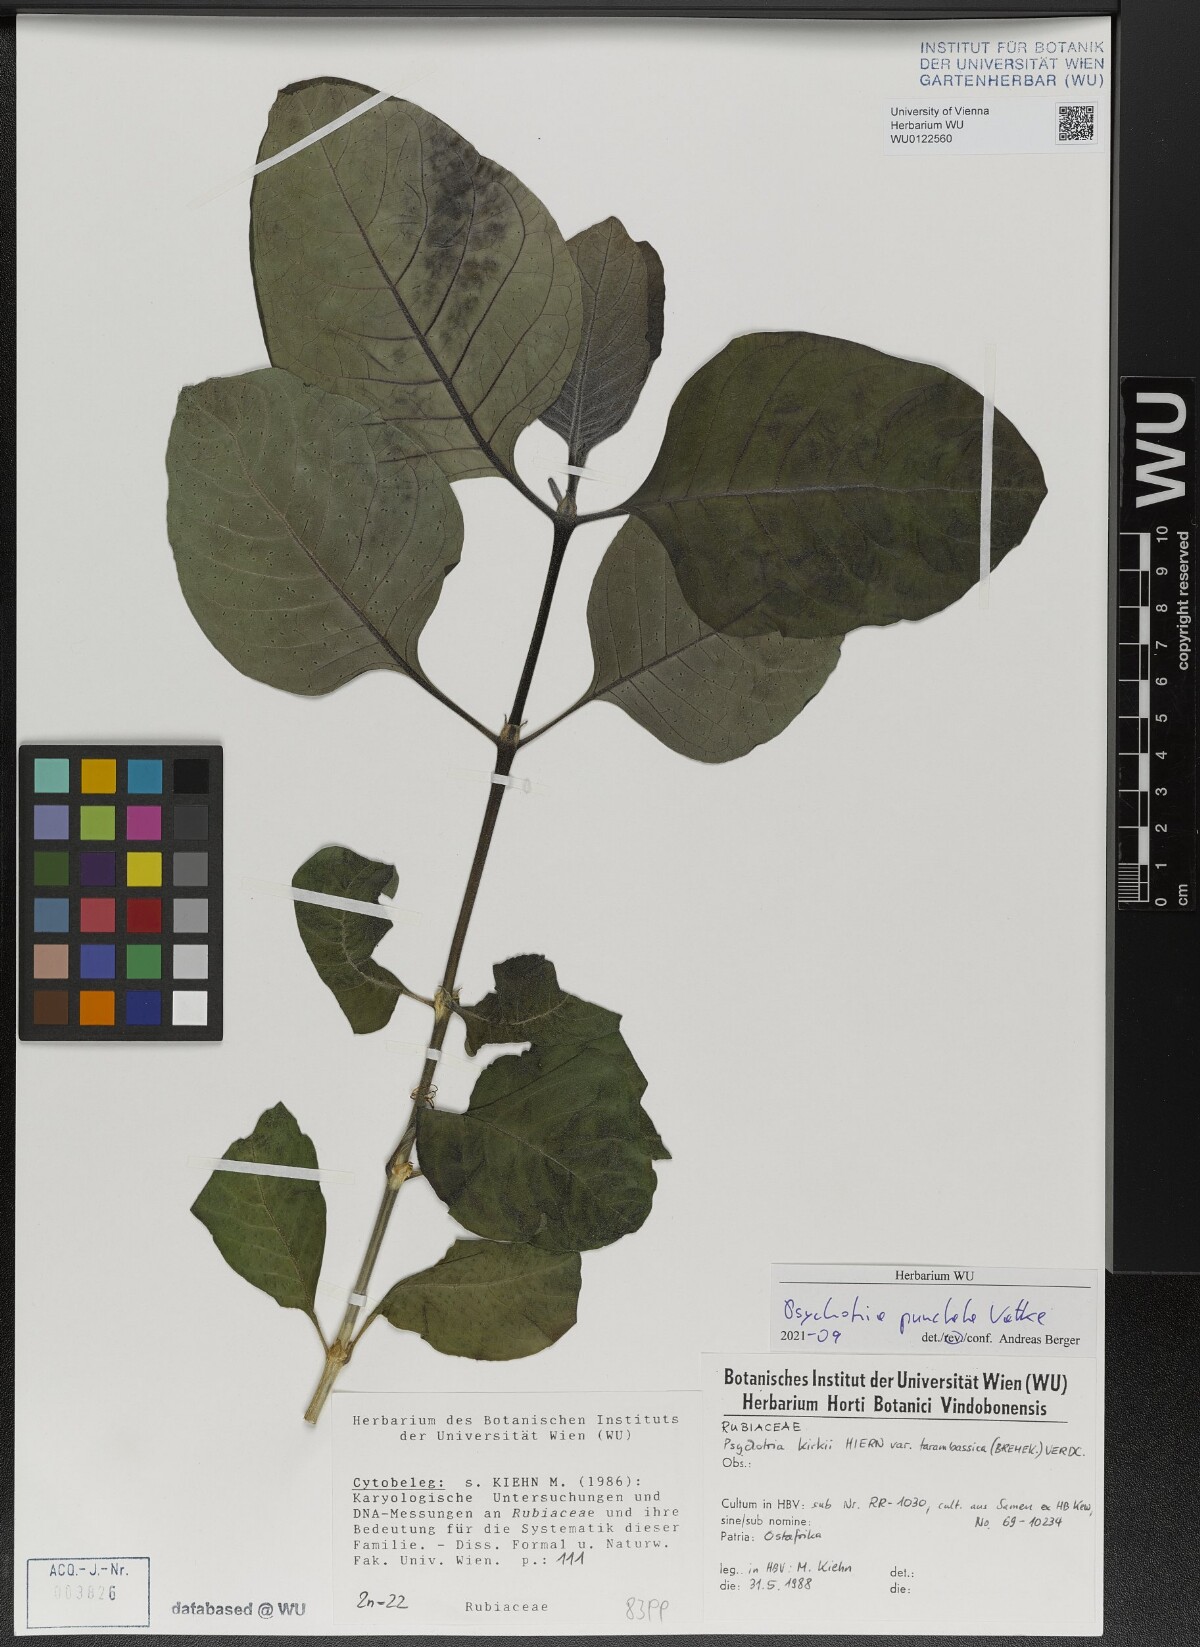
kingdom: Plantae
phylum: Tracheophyta
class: Magnoliopsida
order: Gentianales
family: Rubiaceae
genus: Psychotria
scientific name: Psychotria punctata
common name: Dotted wild coffee
